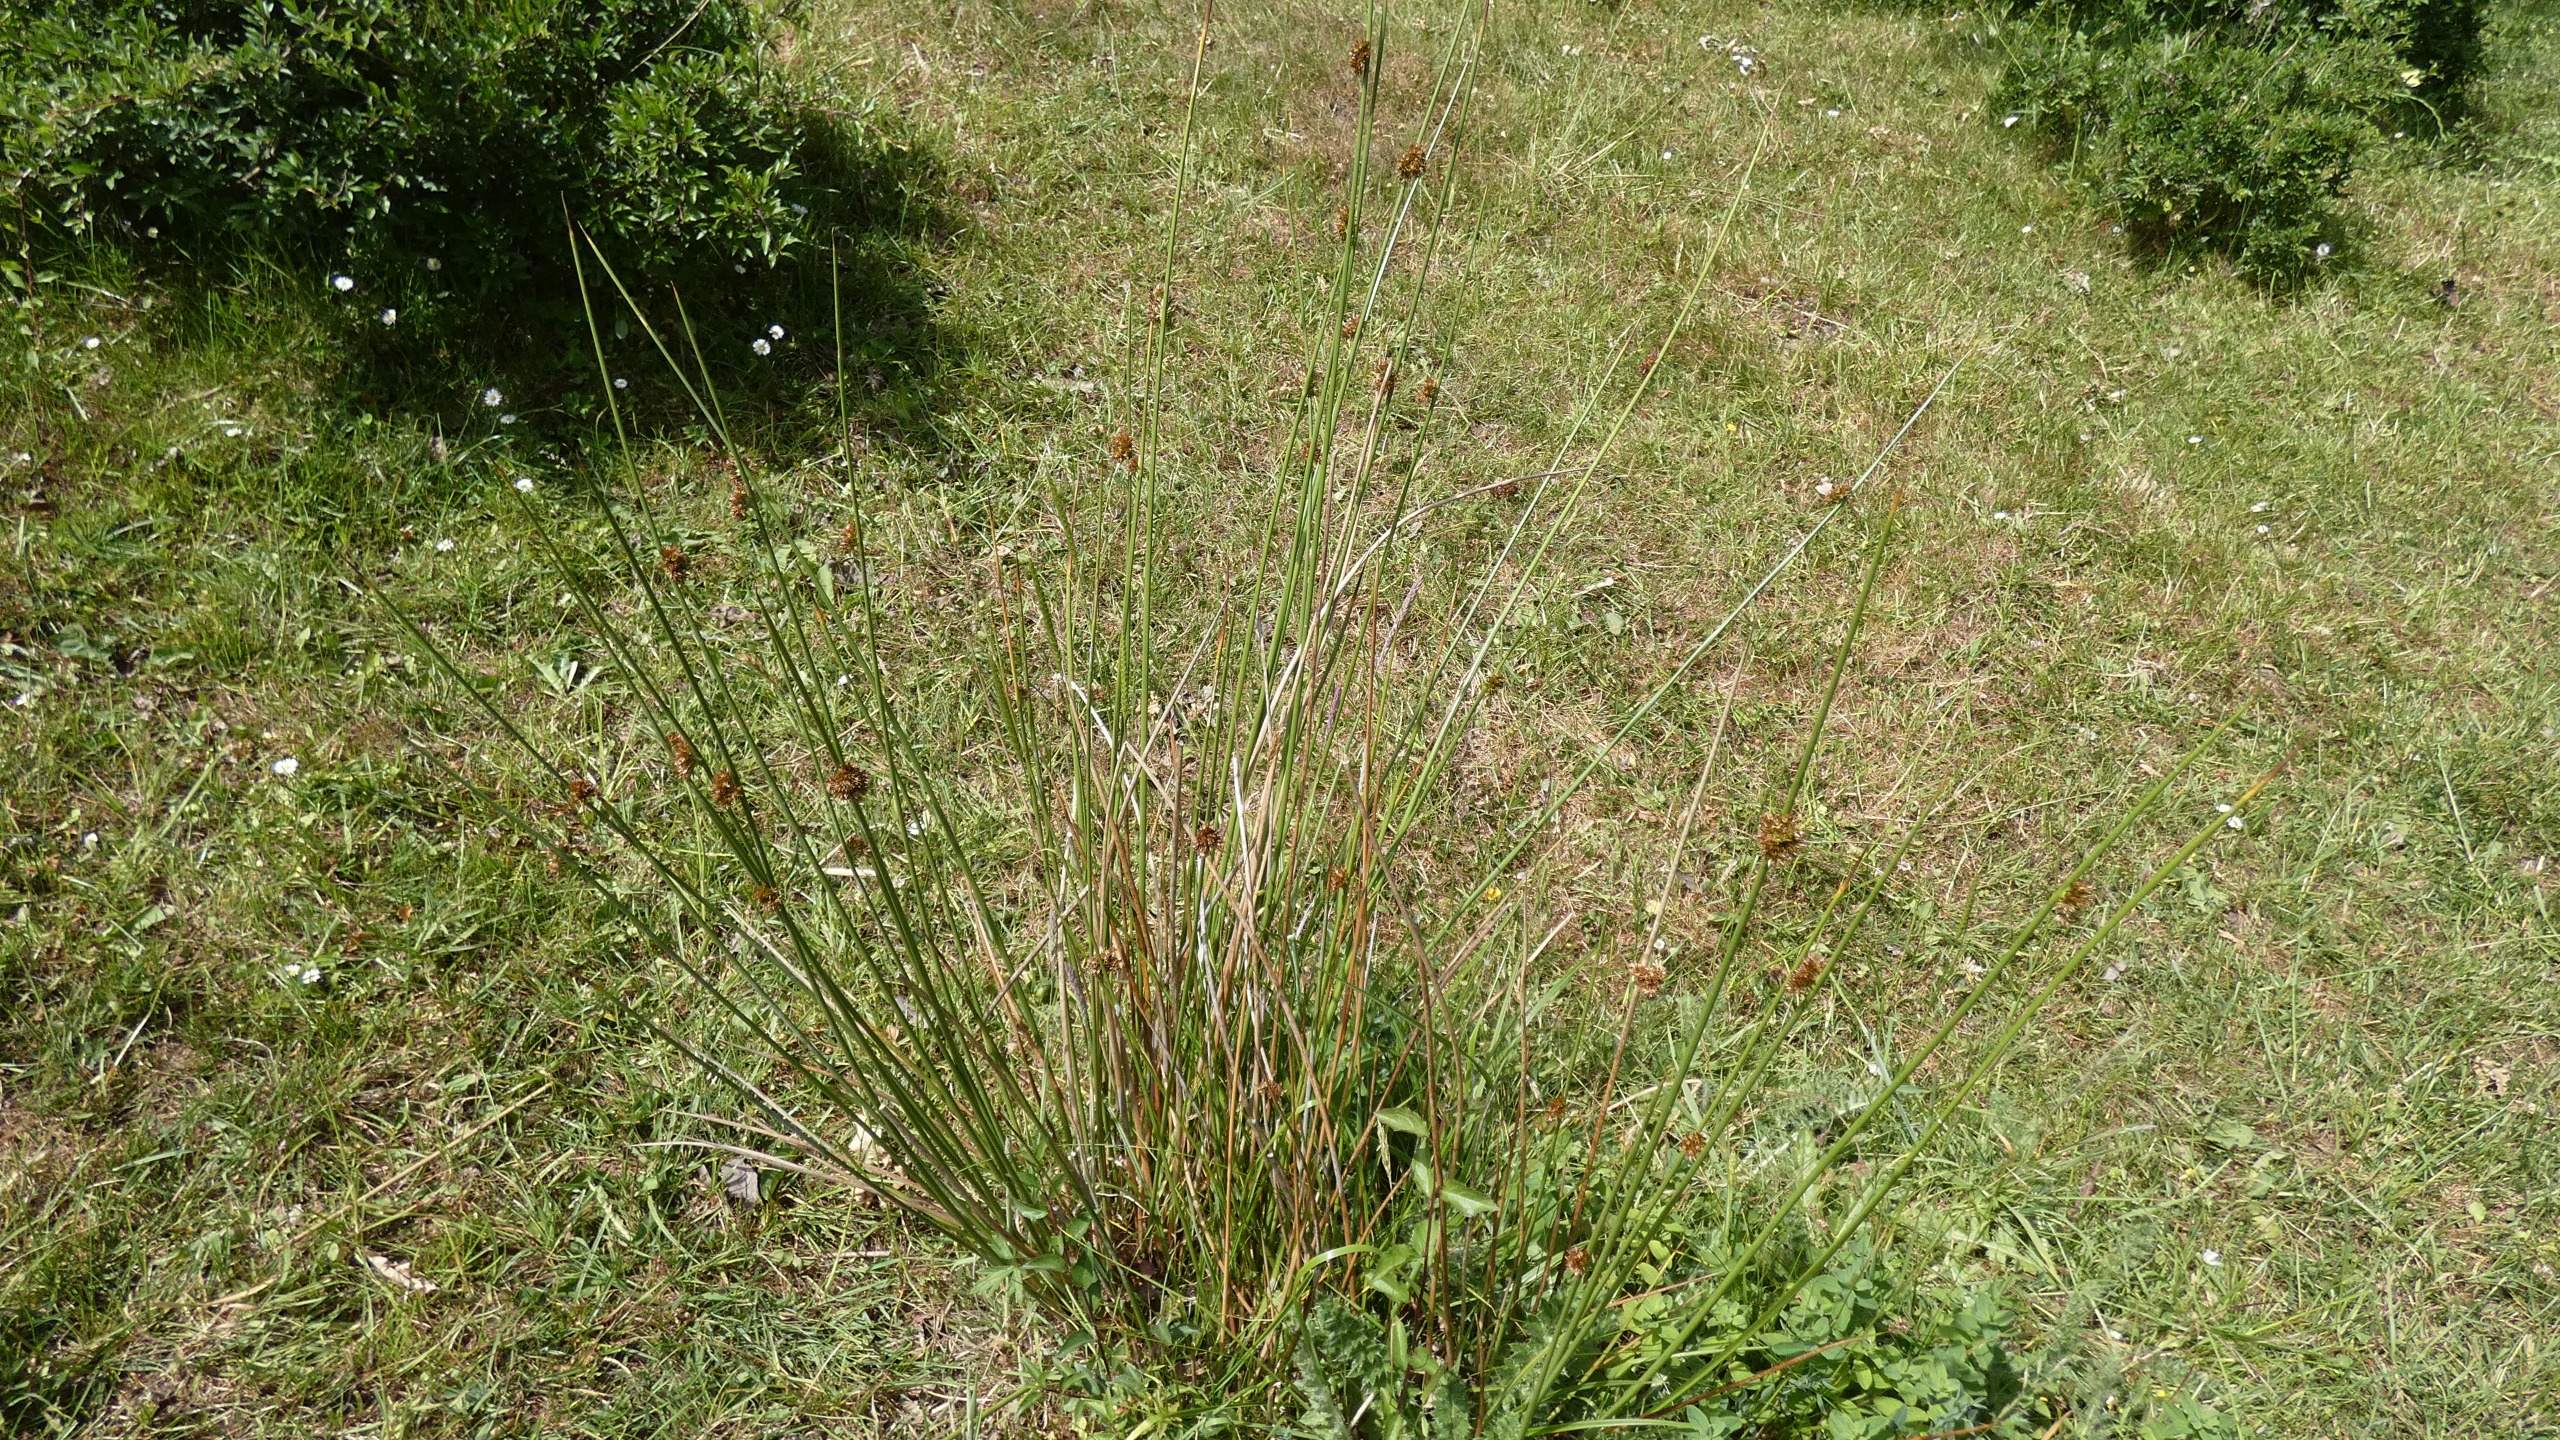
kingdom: Plantae
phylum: Tracheophyta
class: Liliopsida
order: Poales
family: Juncaceae
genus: Juncus
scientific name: Juncus effusus
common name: Lyse-siv
